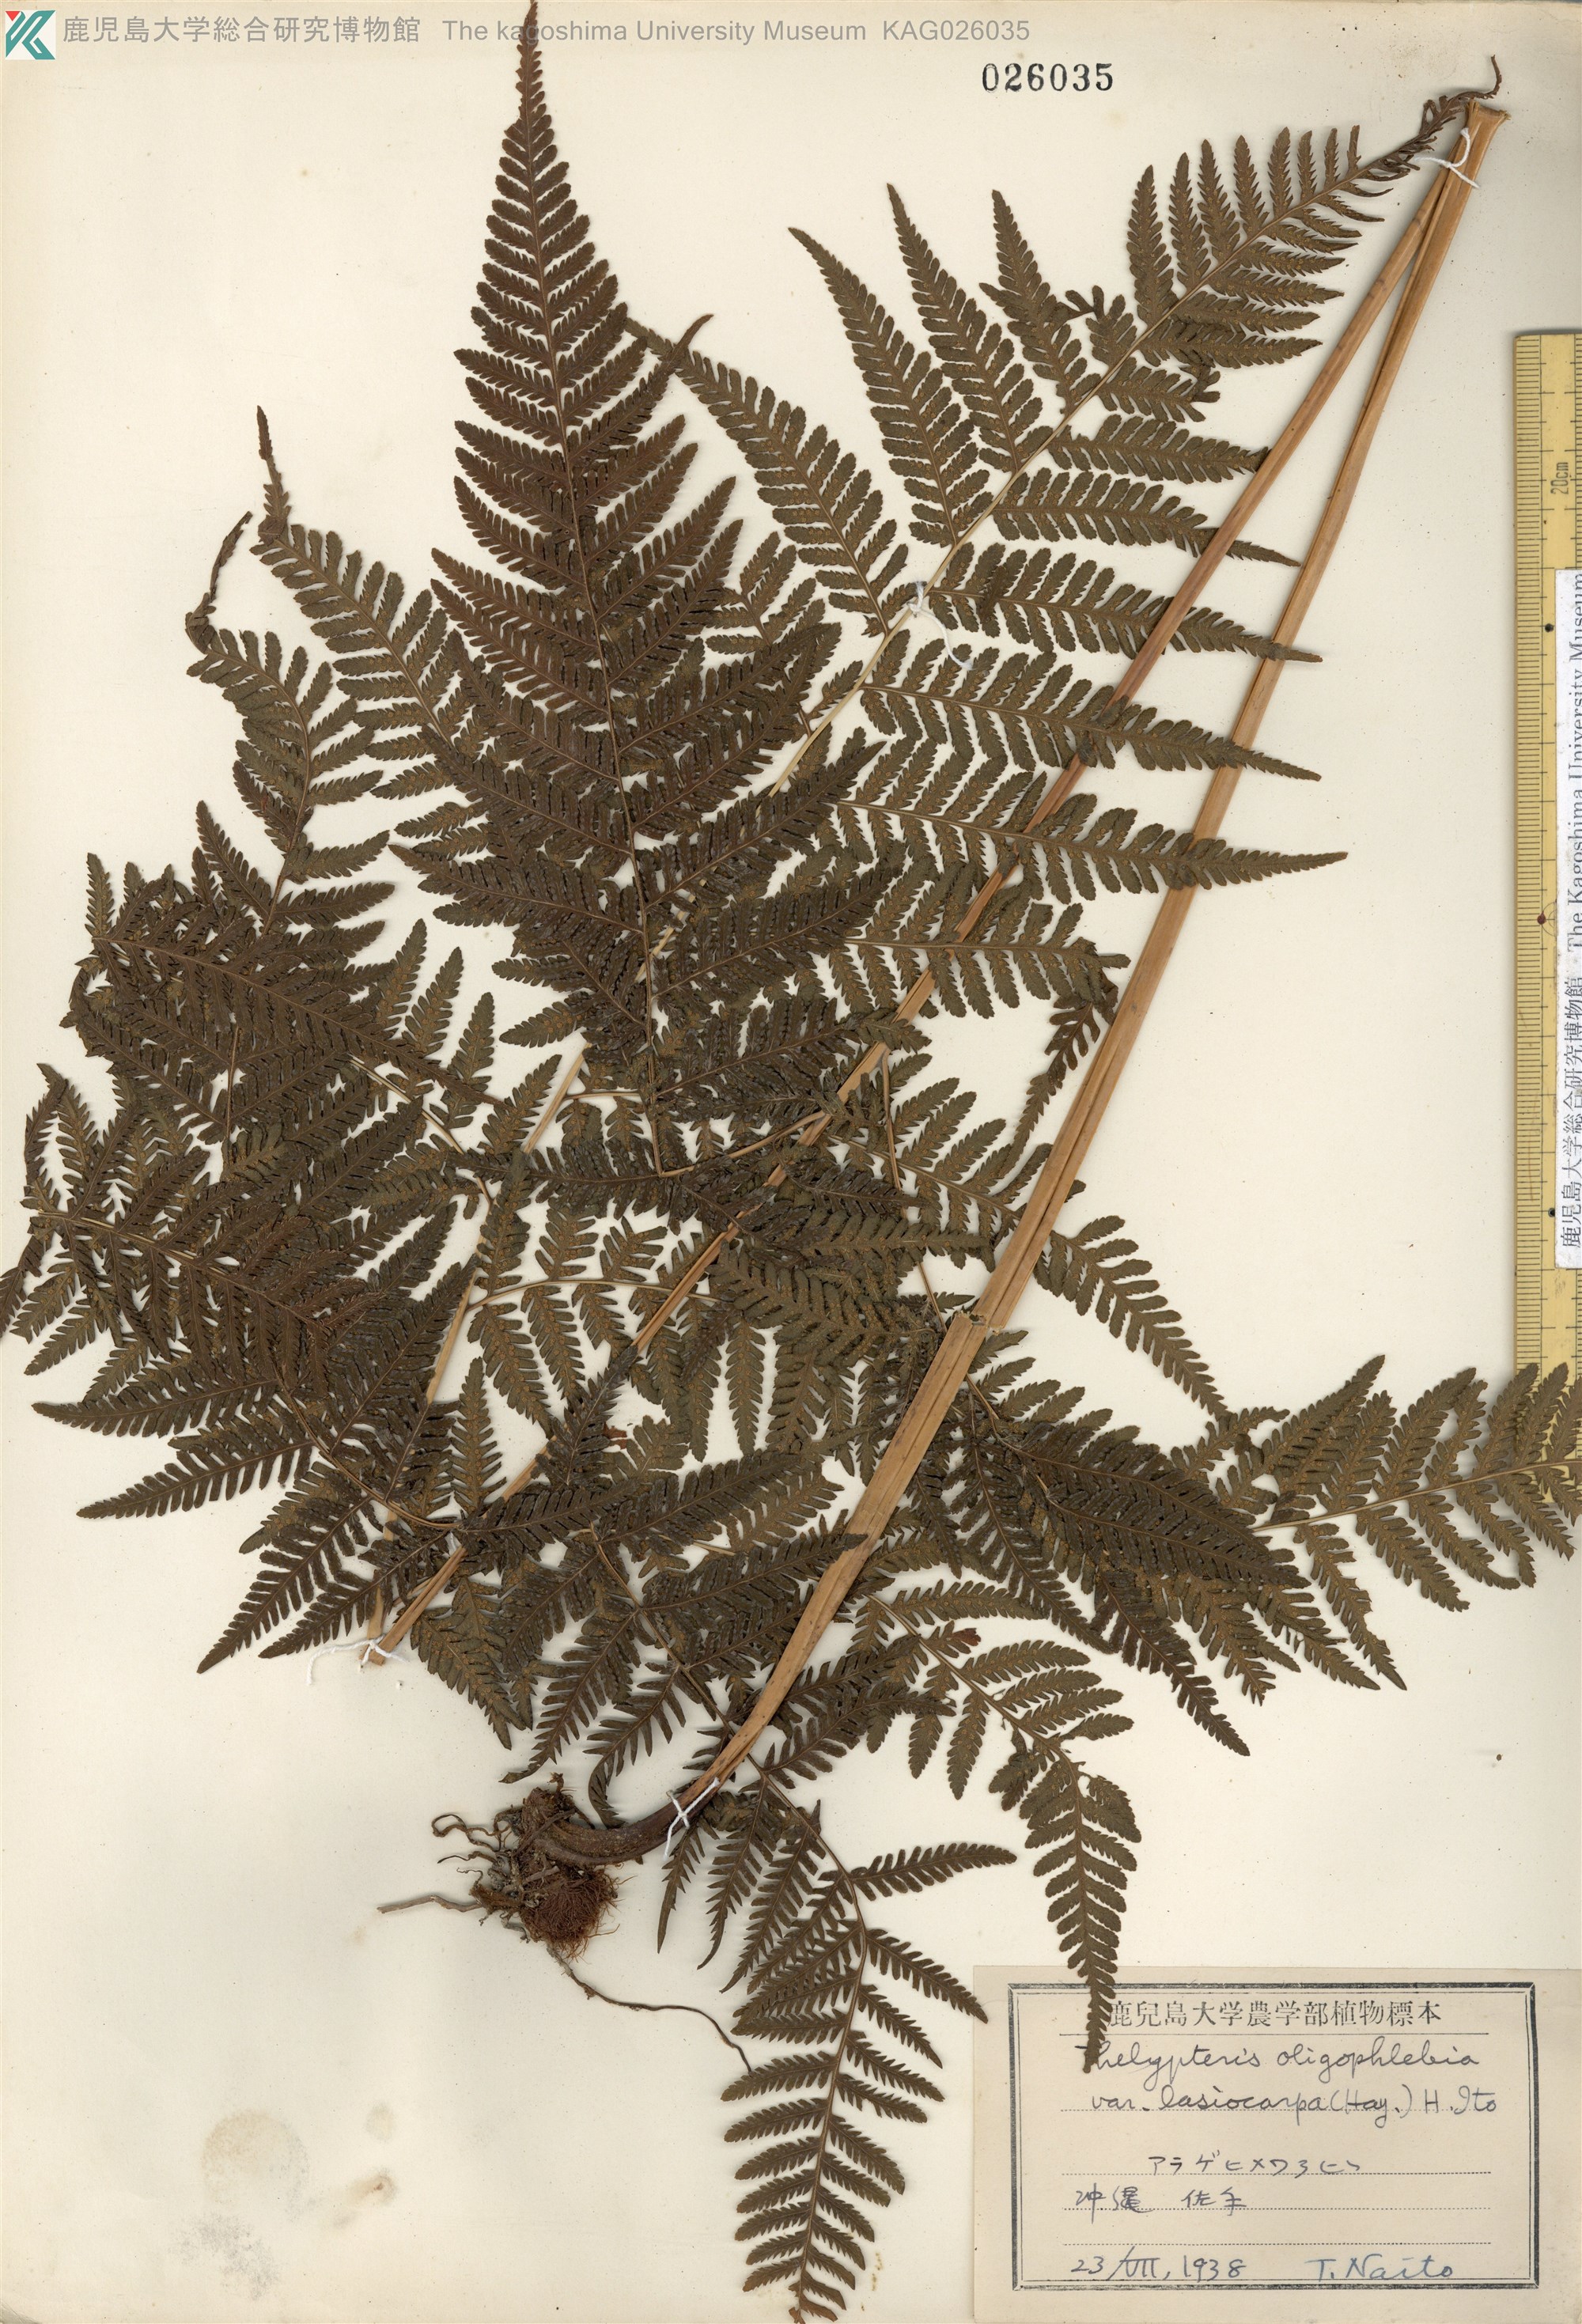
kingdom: Plantae
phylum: Tracheophyta
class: Polypodiopsida
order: Polypodiales
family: Thelypteridaceae
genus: Macrothelypteris
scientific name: Macrothelypteris oligophlebia
